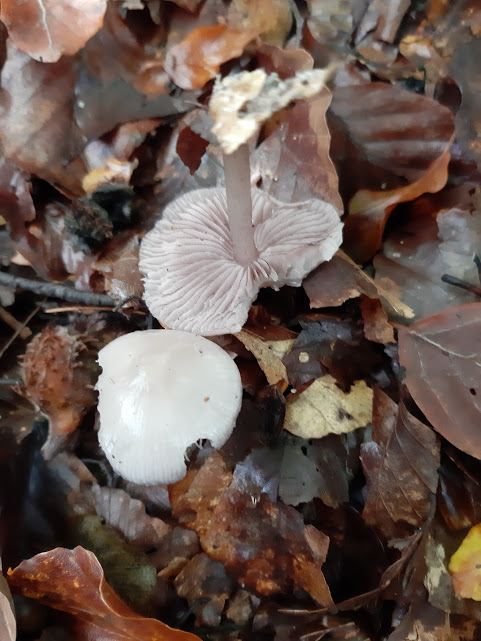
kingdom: Fungi
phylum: Basidiomycota
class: Agaricomycetes
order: Agaricales
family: Mycenaceae
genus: Mycena
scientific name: Mycena pelianthina
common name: mørkbladet huesvamp
